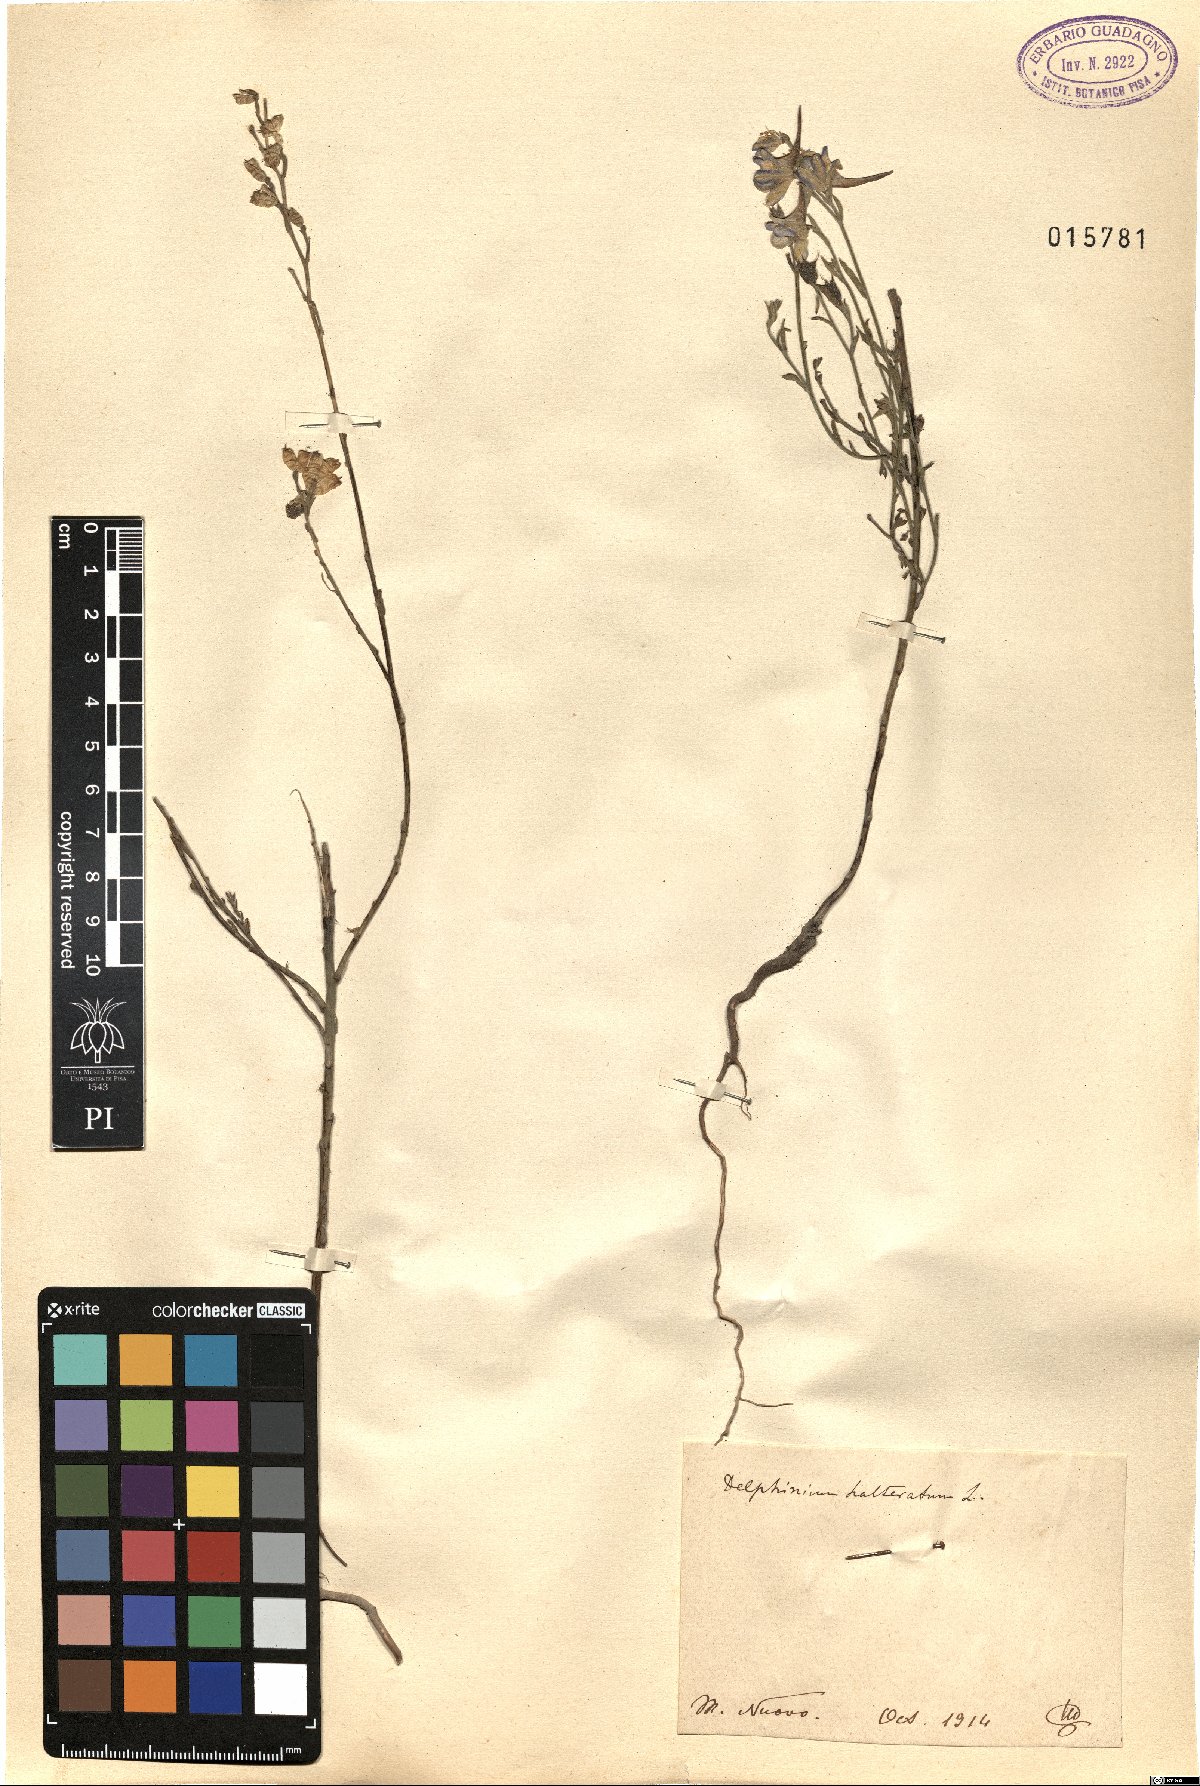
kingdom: Plantae
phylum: Tracheophyta
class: Magnoliopsida
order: Ranunculales
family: Ranunculaceae
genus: Delphinium
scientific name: Delphinium halteratum
